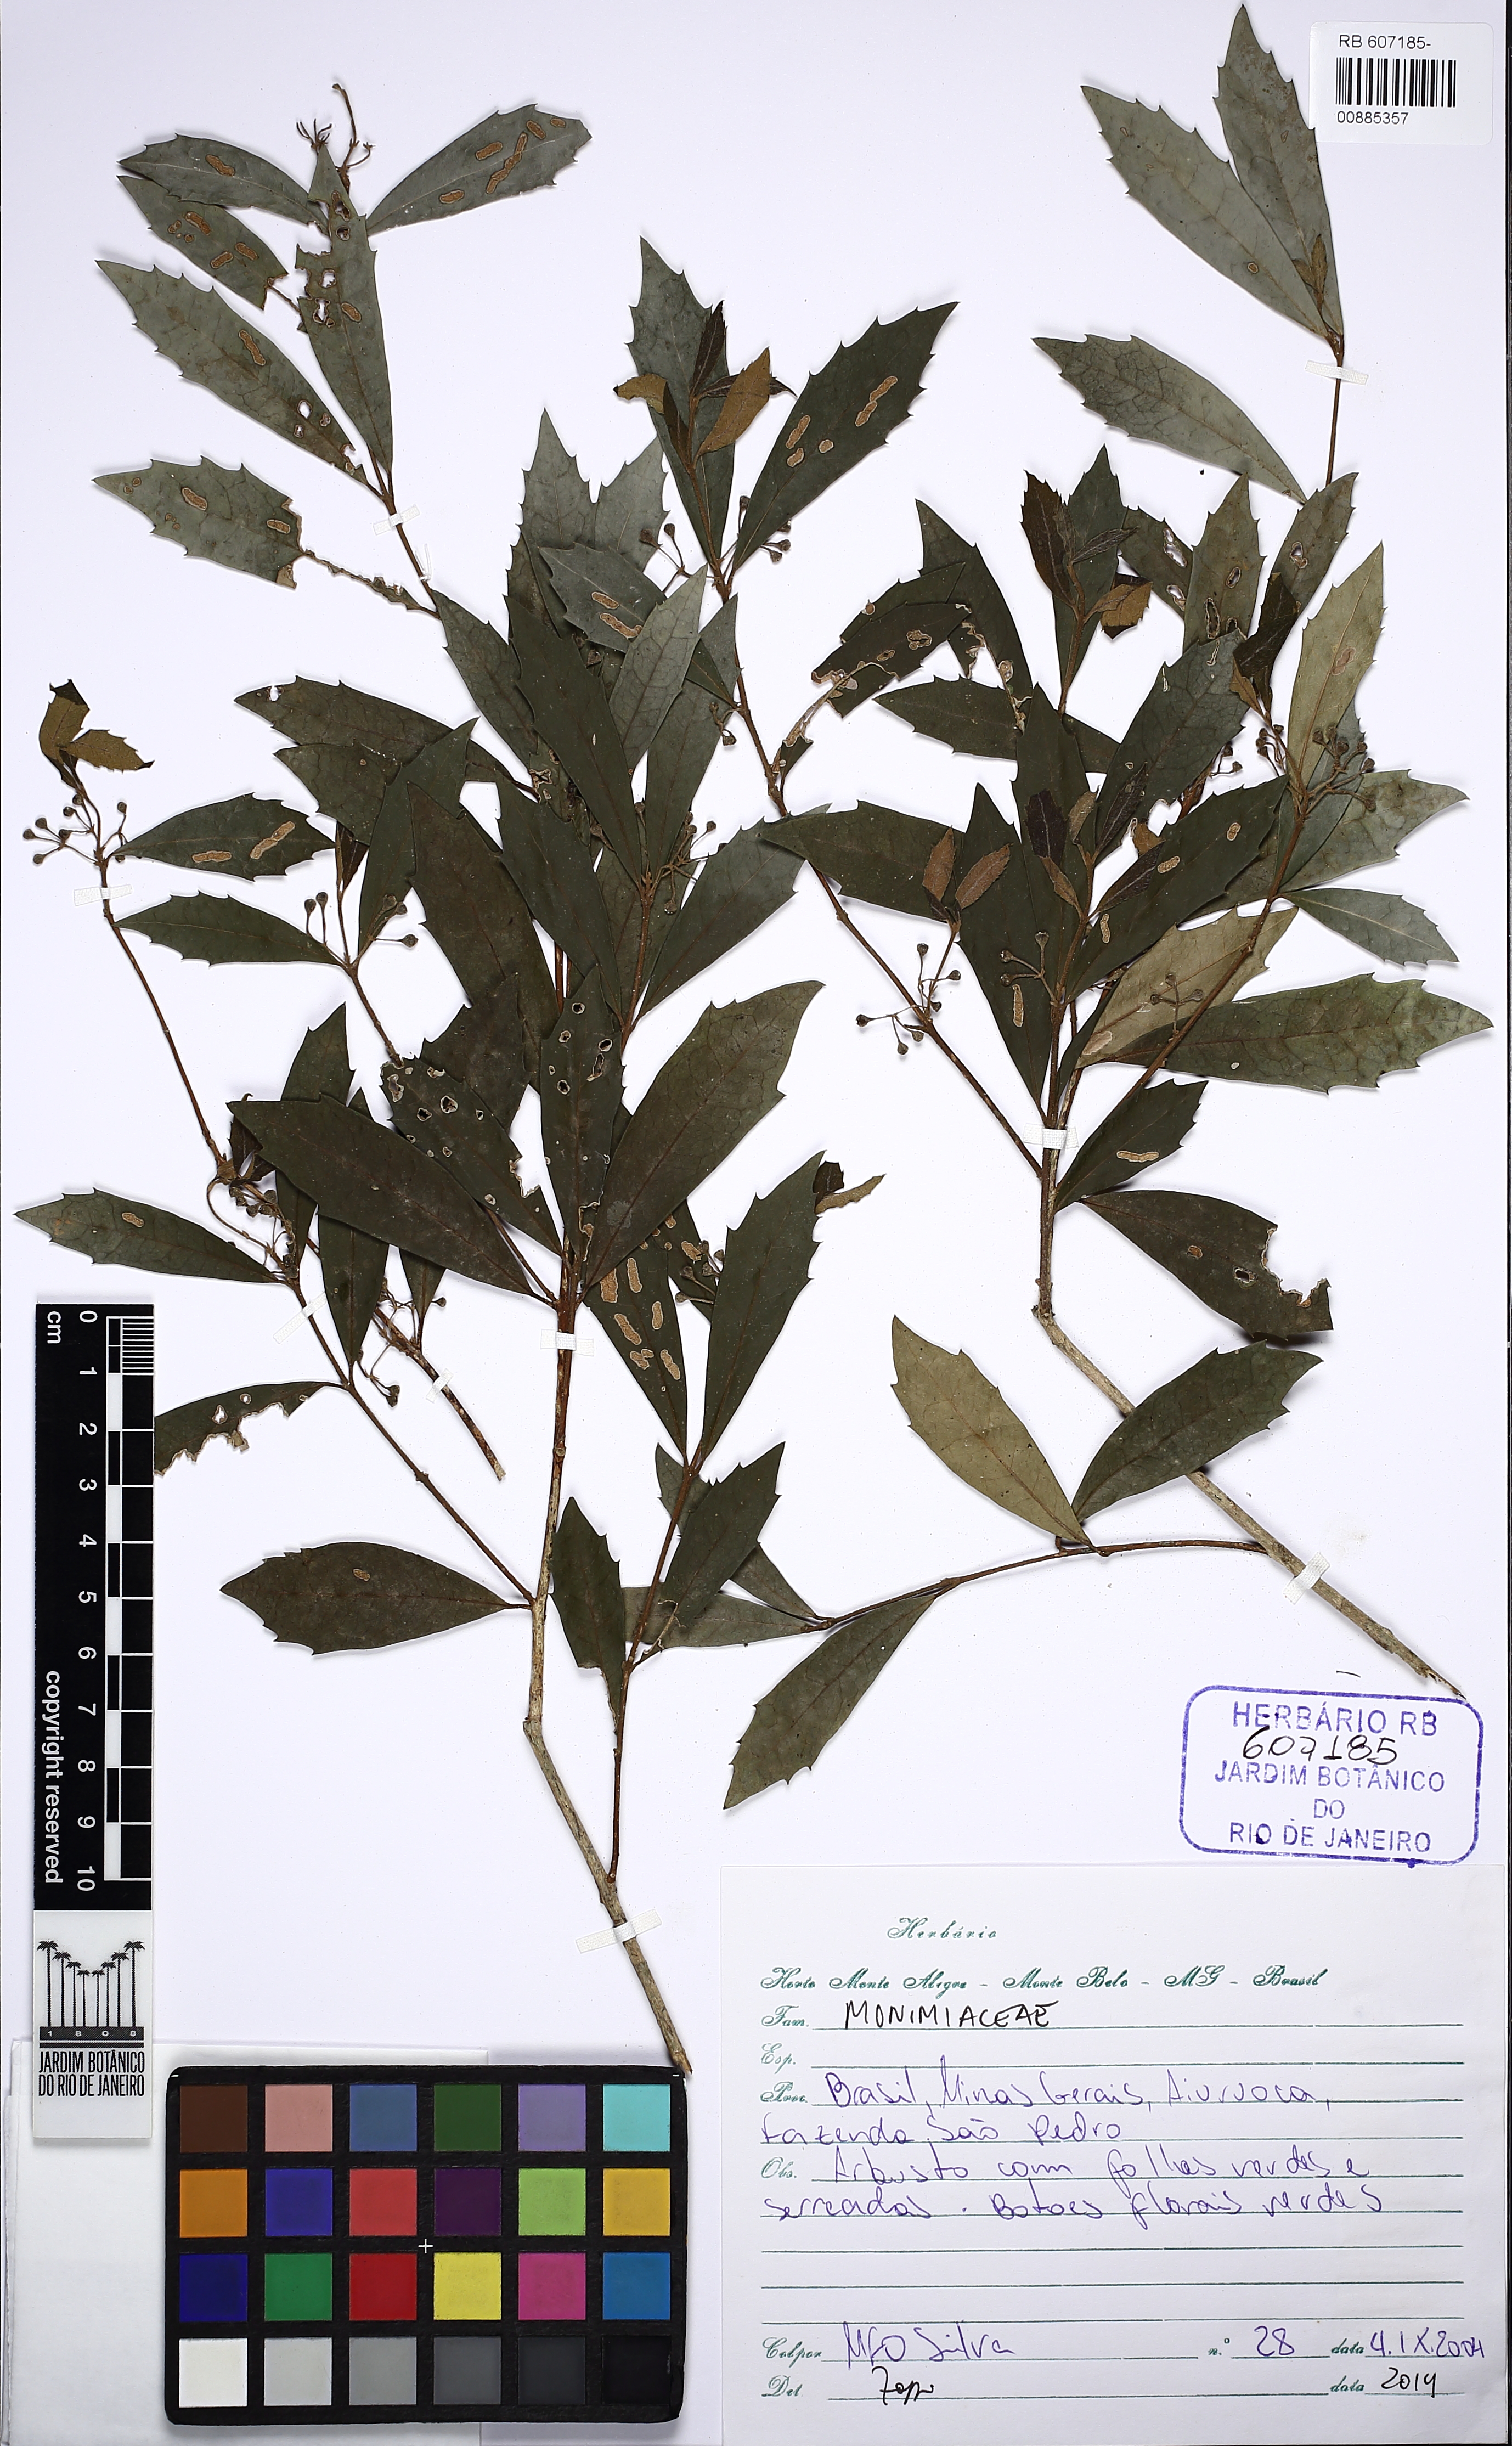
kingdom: Plantae
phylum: Tracheophyta
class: Magnoliopsida
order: Laurales
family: Monimiaceae
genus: Mollinedia
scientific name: Mollinedia elegans
